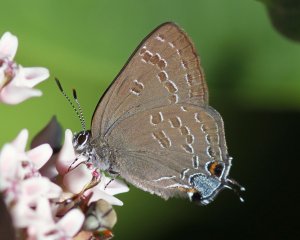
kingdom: Animalia
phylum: Arthropoda
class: Insecta
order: Lepidoptera
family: Lycaenidae
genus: Strymon
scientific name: Strymon caryaevorus
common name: Hickory Hairstreak
